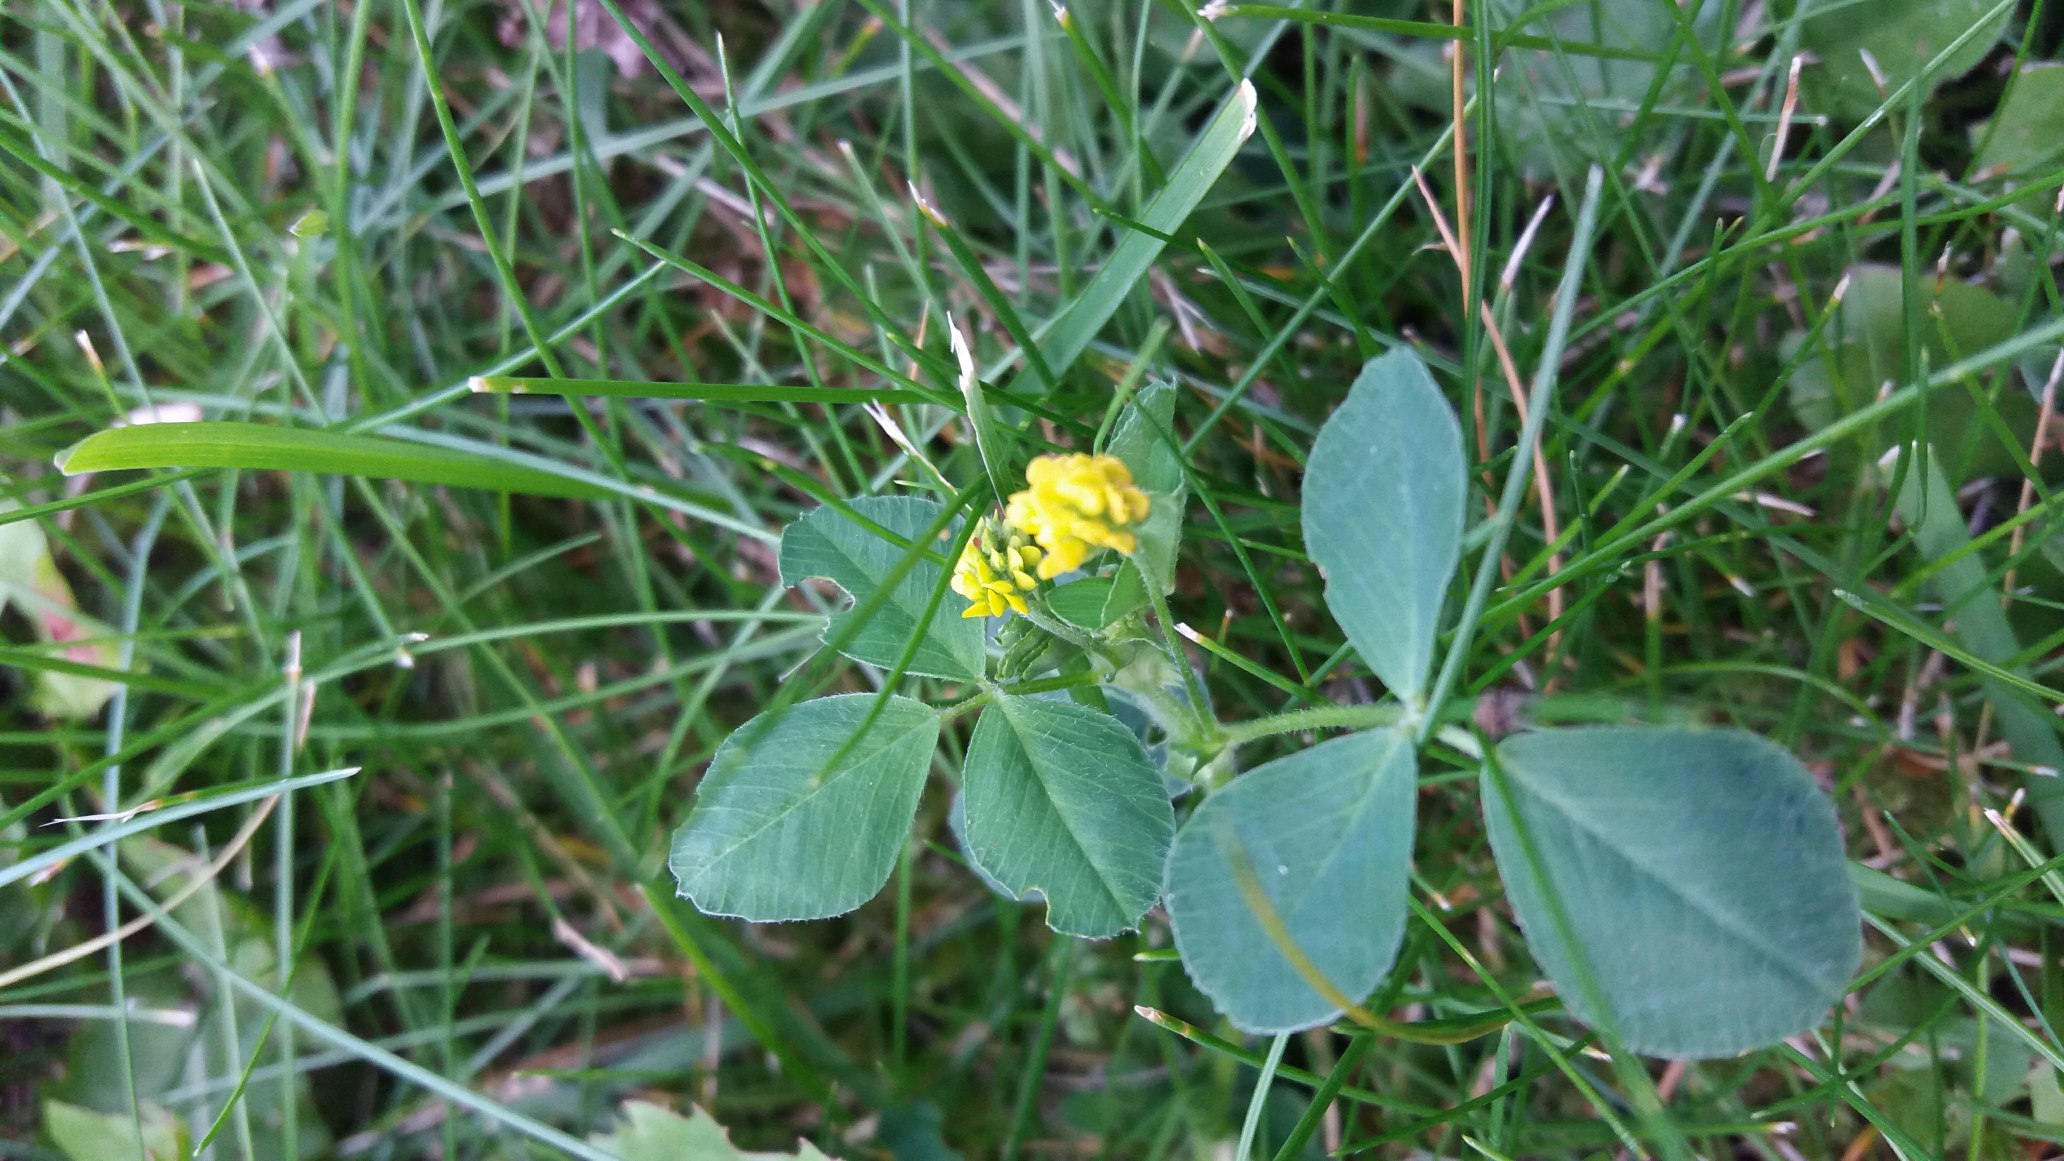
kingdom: Plantae
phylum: Tracheophyta
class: Magnoliopsida
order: Fabales
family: Fabaceae
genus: Medicago
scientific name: Medicago lupulina
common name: Humle-sneglebælg
